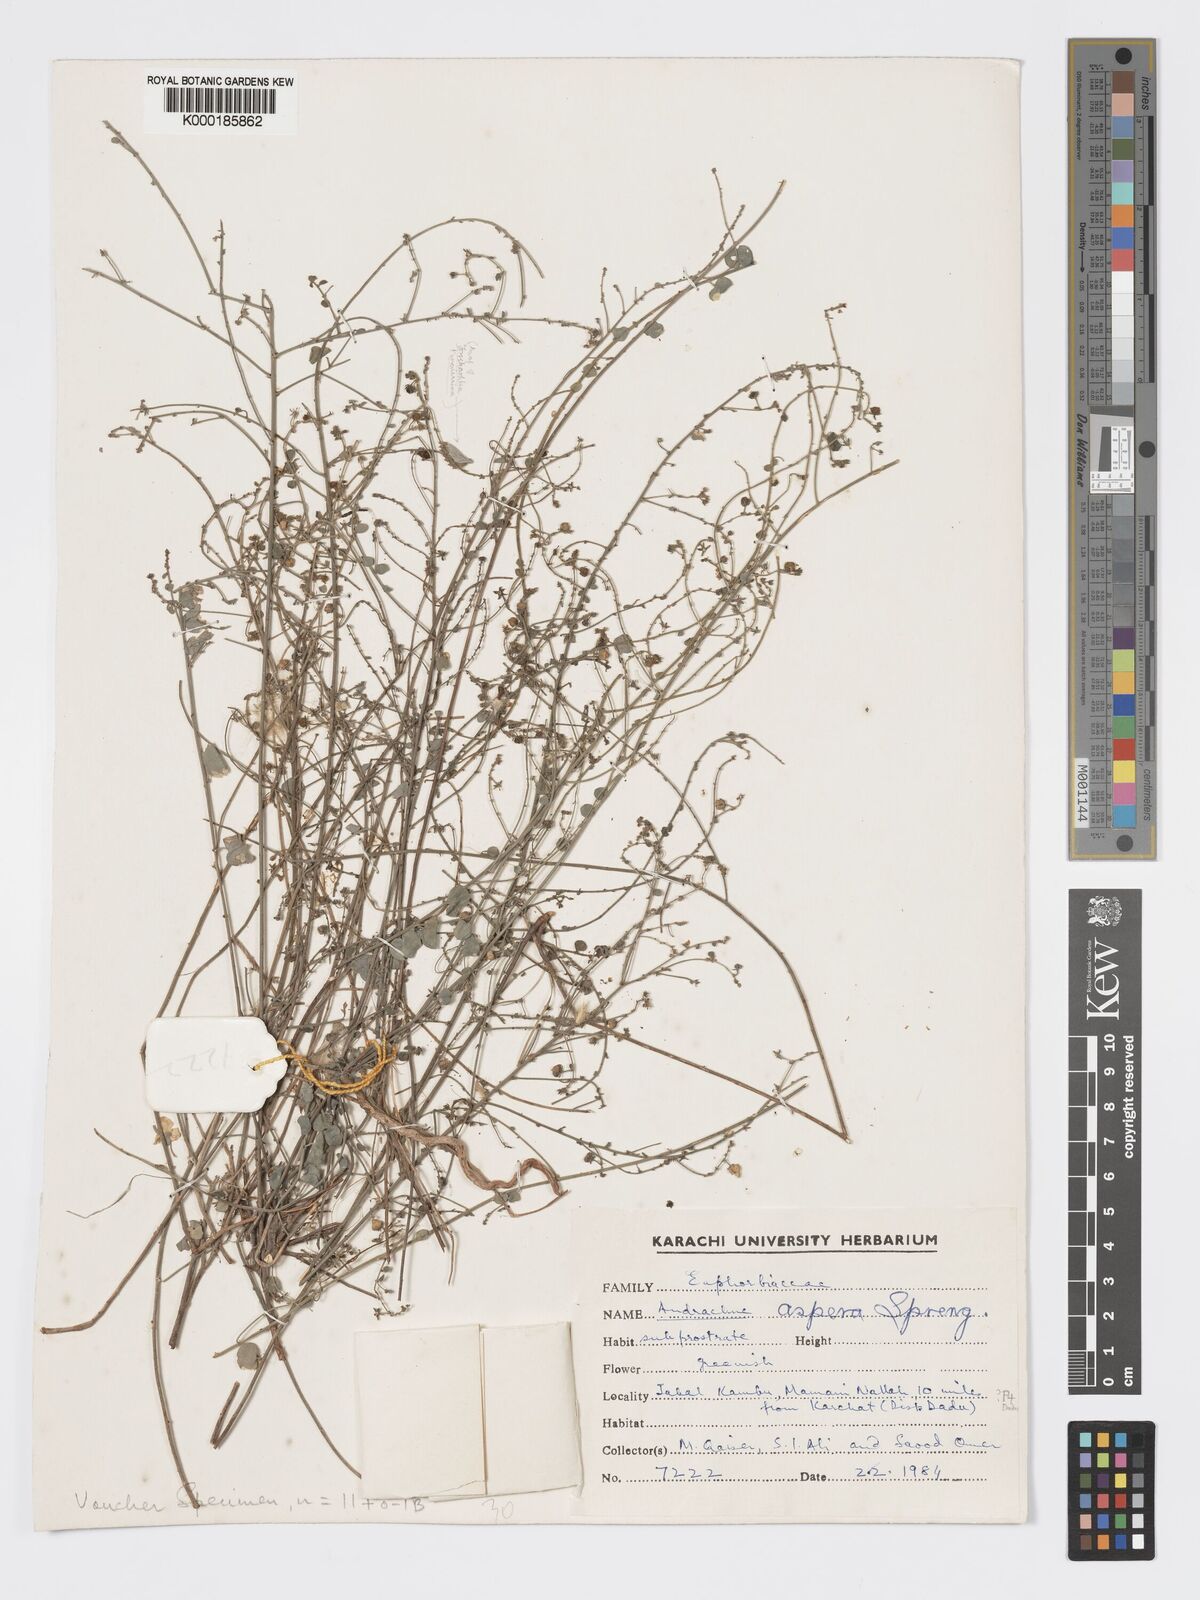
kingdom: Plantae
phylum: Tracheophyta
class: Magnoliopsida
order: Malpighiales
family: Phyllanthaceae
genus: Andrachne
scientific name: Andrachne aspera
